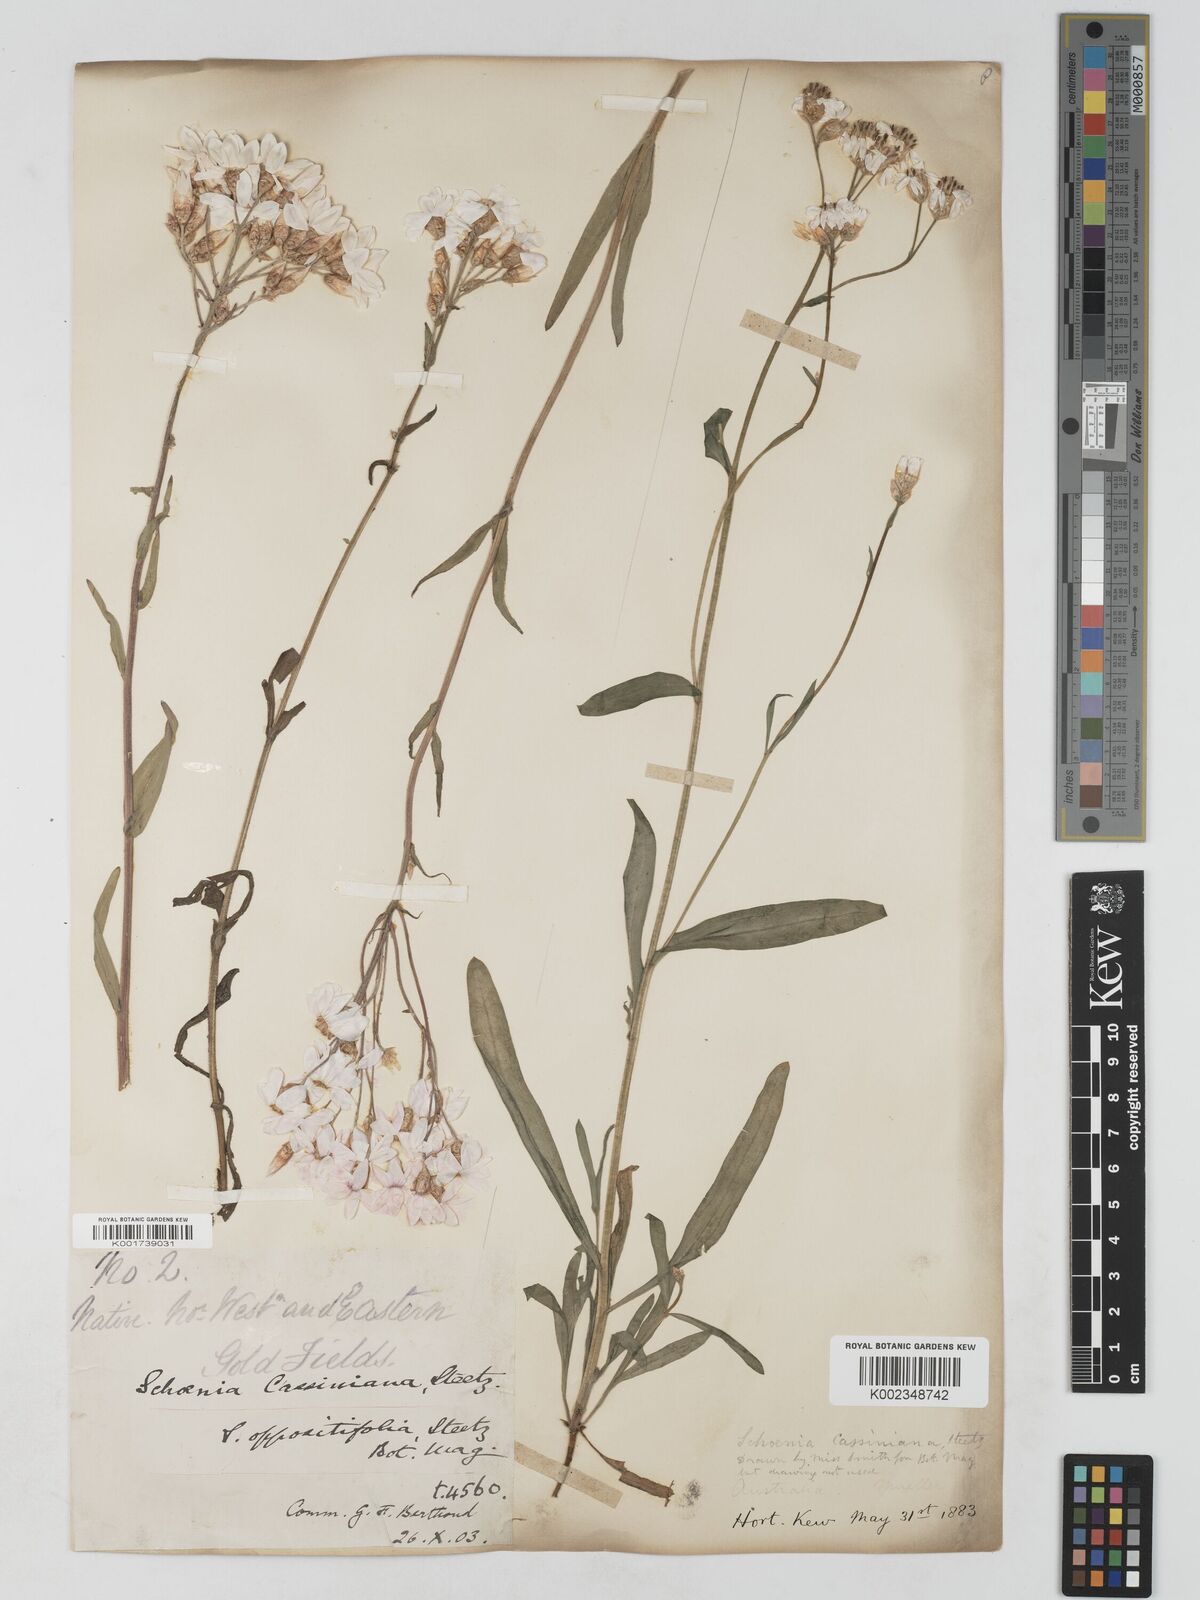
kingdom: Plantae
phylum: Tracheophyta
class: Magnoliopsida
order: Asterales
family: Asteraceae
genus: Schoenia
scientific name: Schoenia cassiniana
